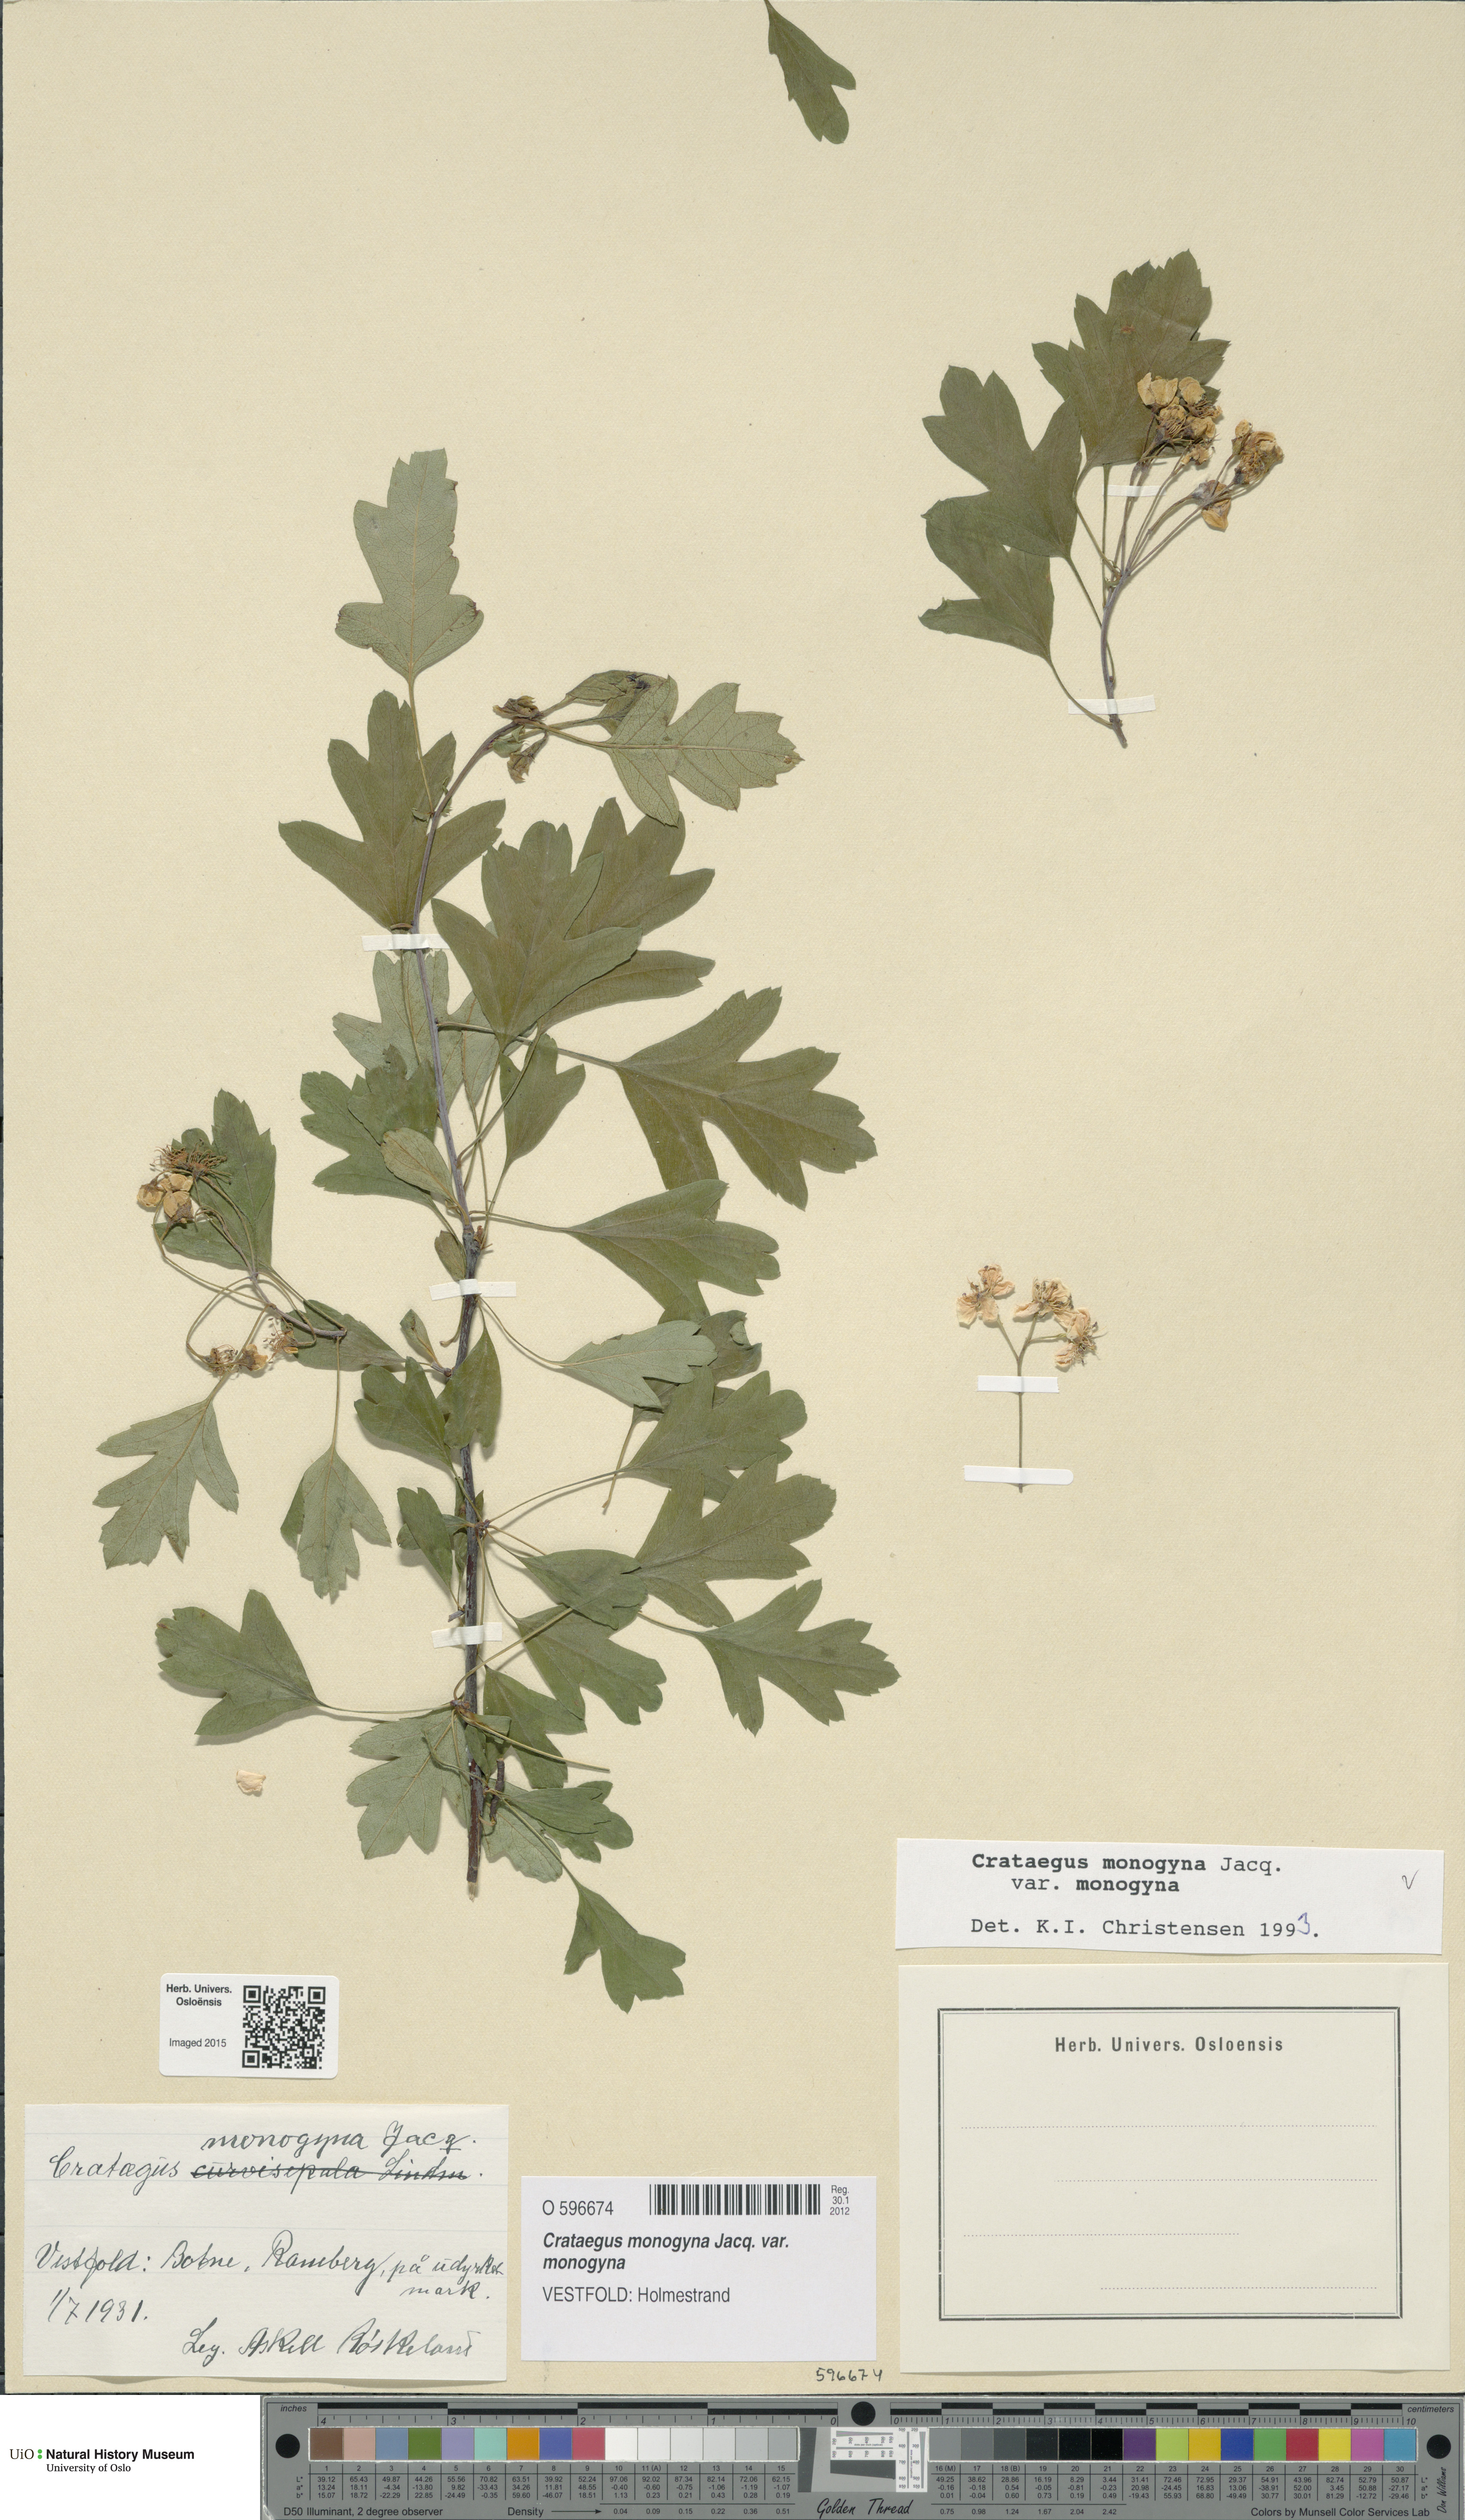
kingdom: Plantae
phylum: Tracheophyta
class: Magnoliopsida
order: Rosales
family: Rosaceae
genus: Crataegus
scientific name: Crataegus monogyna
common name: Hawthorn
